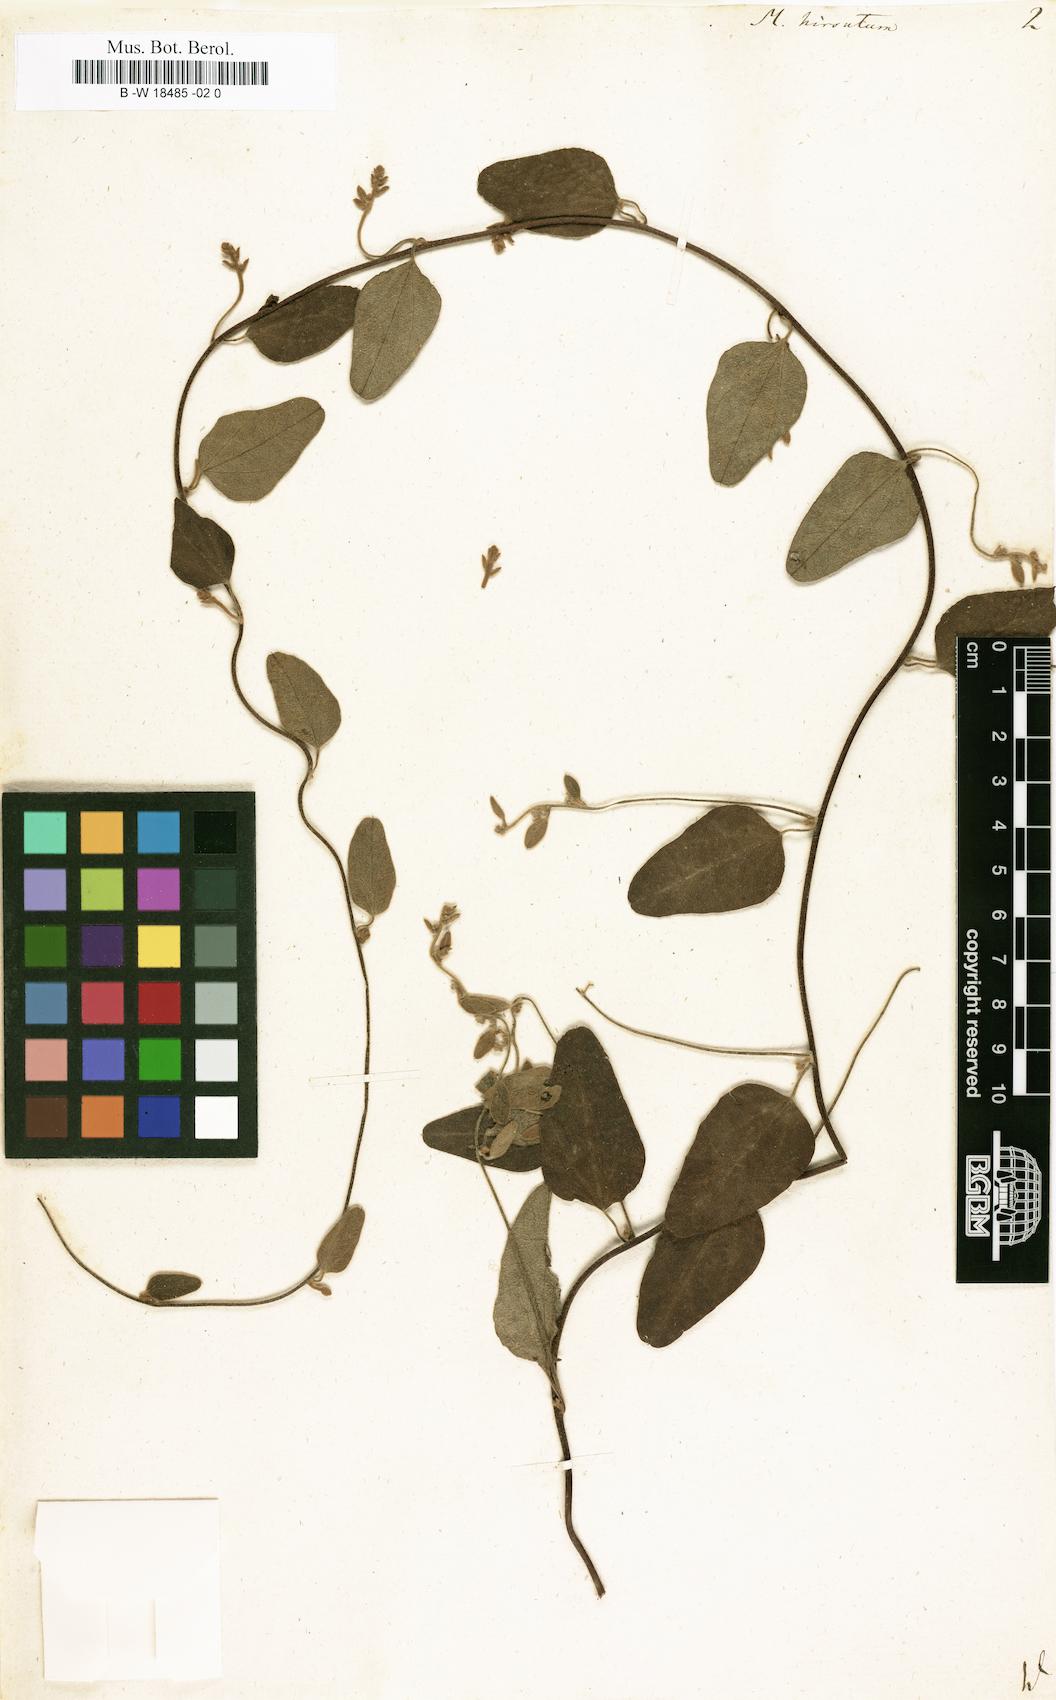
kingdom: Plantae
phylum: Tracheophyta
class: Magnoliopsida
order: Ranunculales
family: Menispermaceae
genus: Cocculus
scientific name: Cocculus hirsutus
